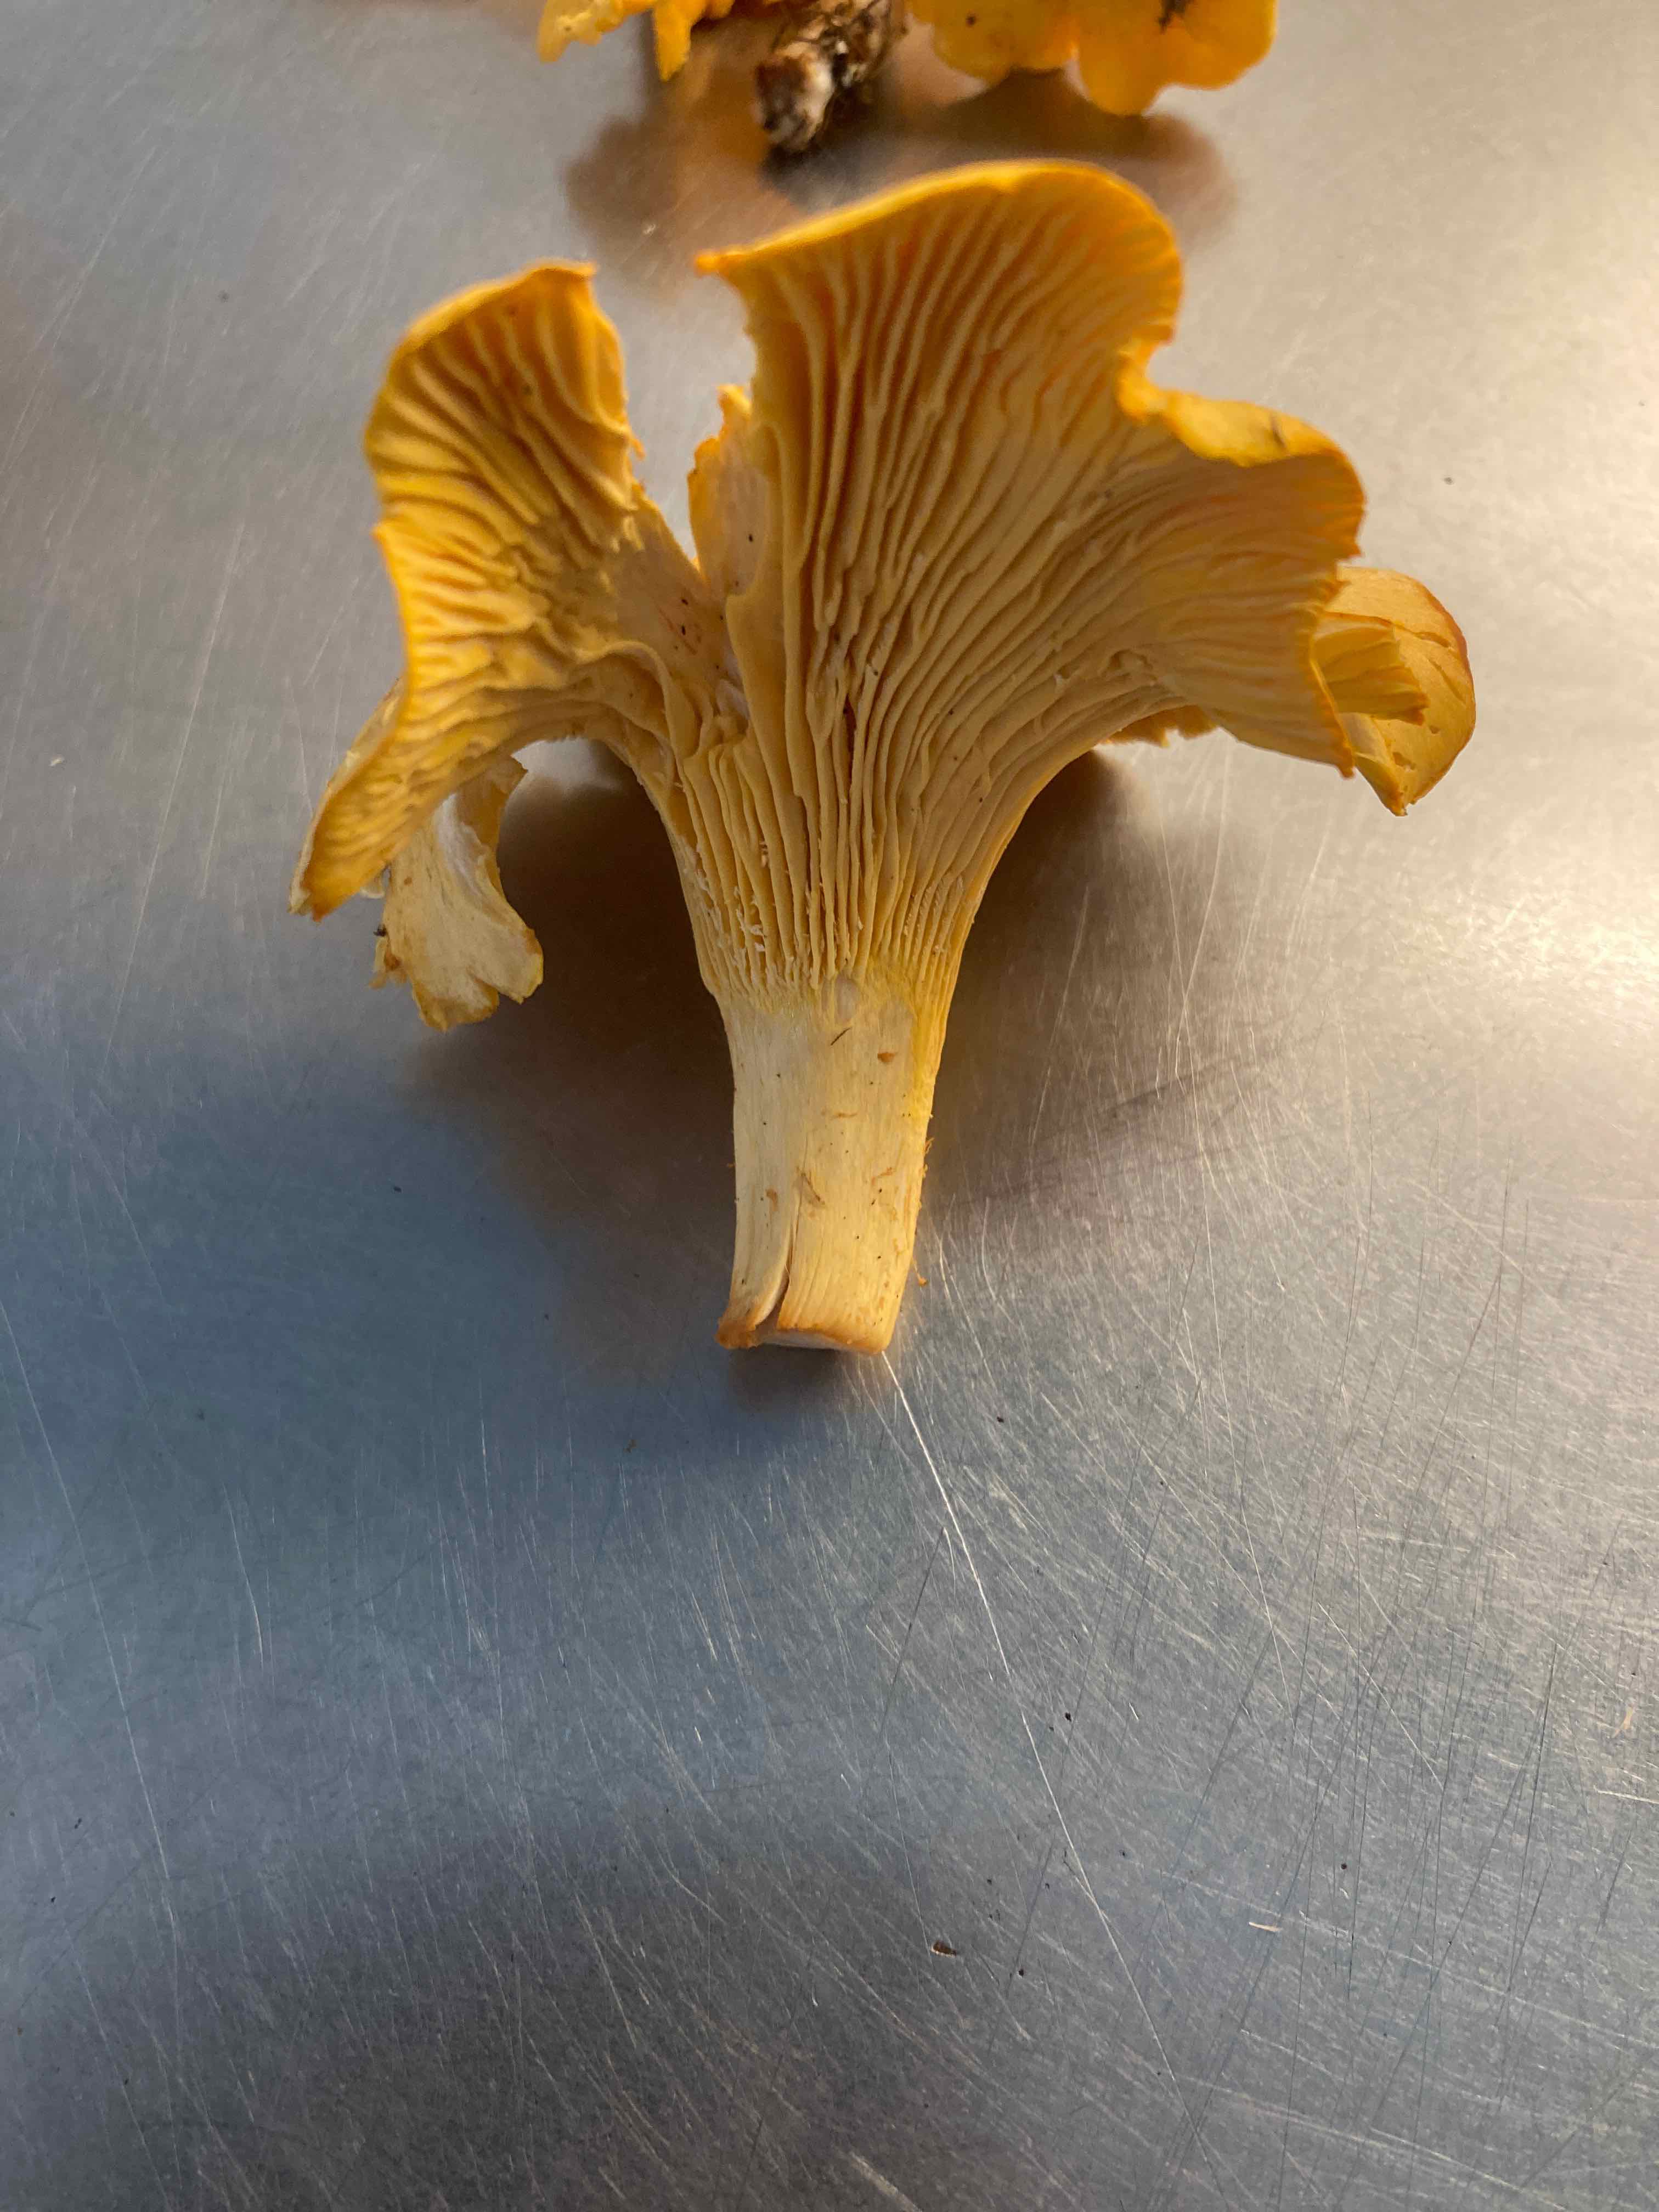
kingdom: Fungi
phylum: Basidiomycota
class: Agaricomycetes
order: Cantharellales
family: Hydnaceae
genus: Cantharellus
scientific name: Cantharellus cibarius
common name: almindelig kantarel
